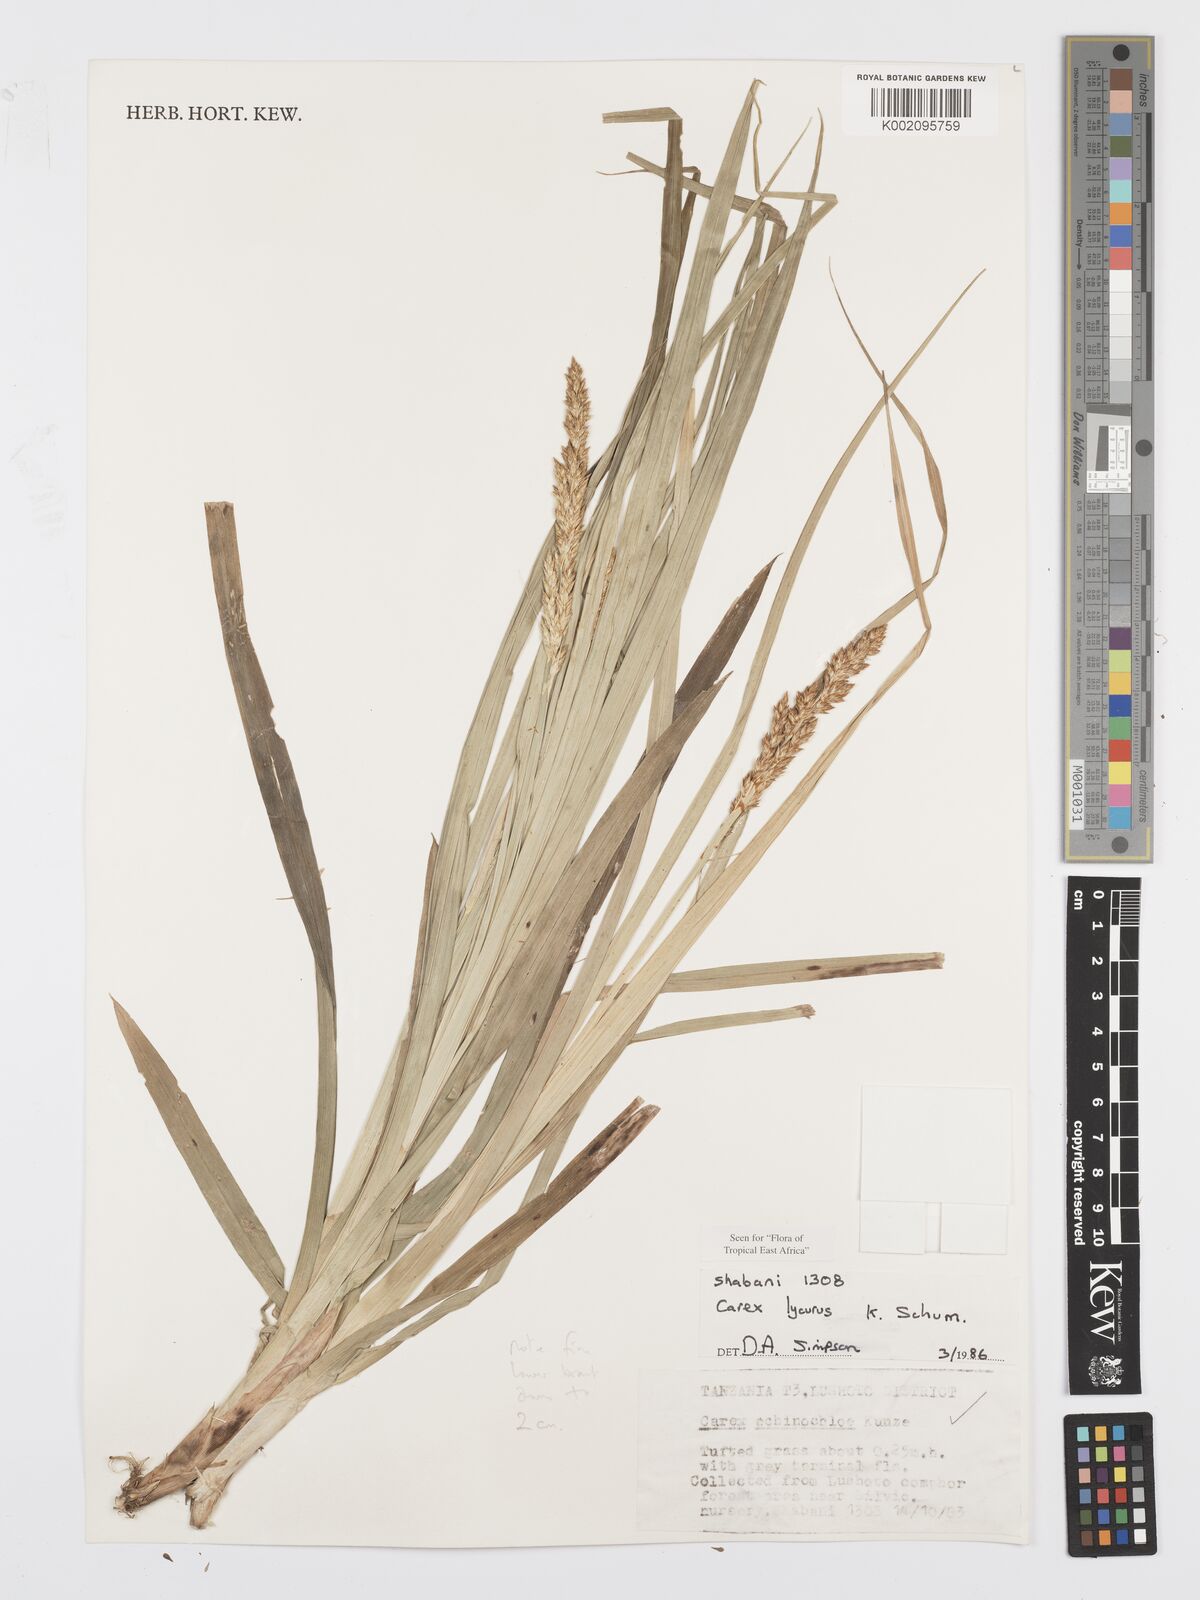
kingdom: Plantae
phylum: Tracheophyta
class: Liliopsida
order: Poales
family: Cyperaceae
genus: Carex
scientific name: Carex lycurus
